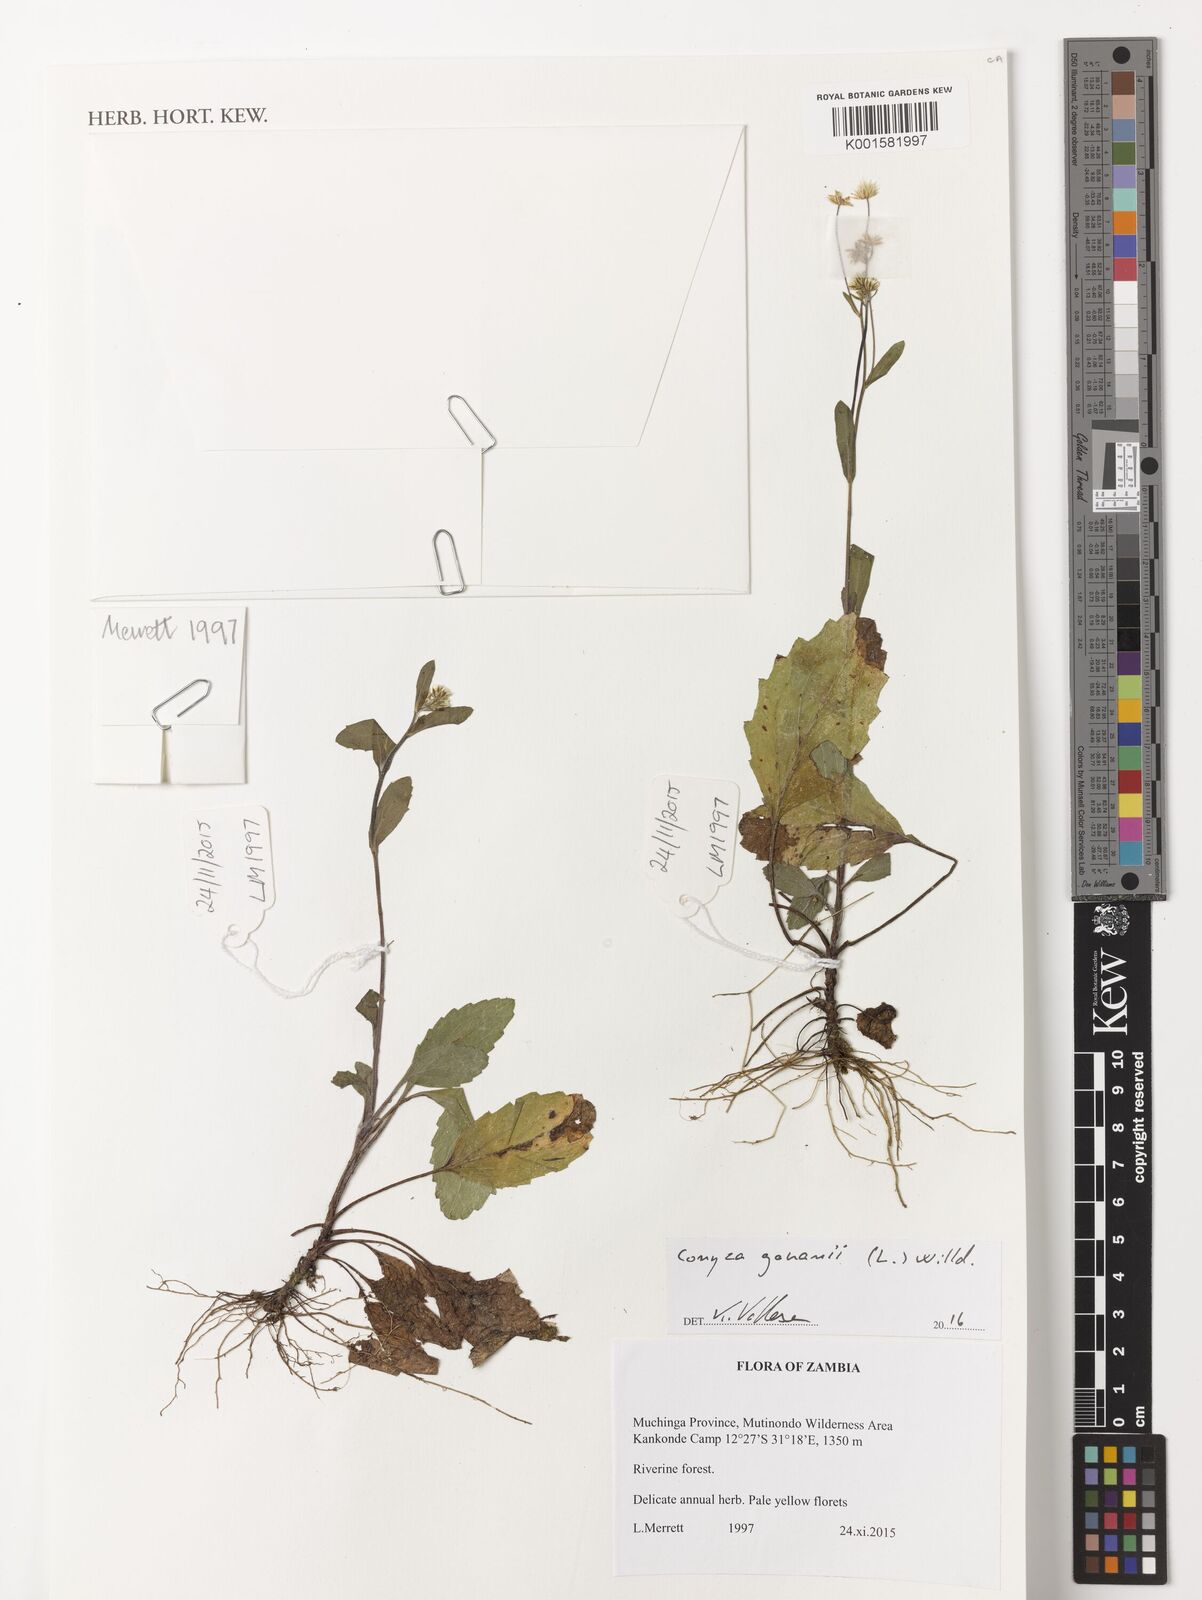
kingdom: Plantae
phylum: Tracheophyta
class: Magnoliopsida
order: Asterales
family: Asteraceae
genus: Eschenbachia
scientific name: Eschenbachia gouanii
